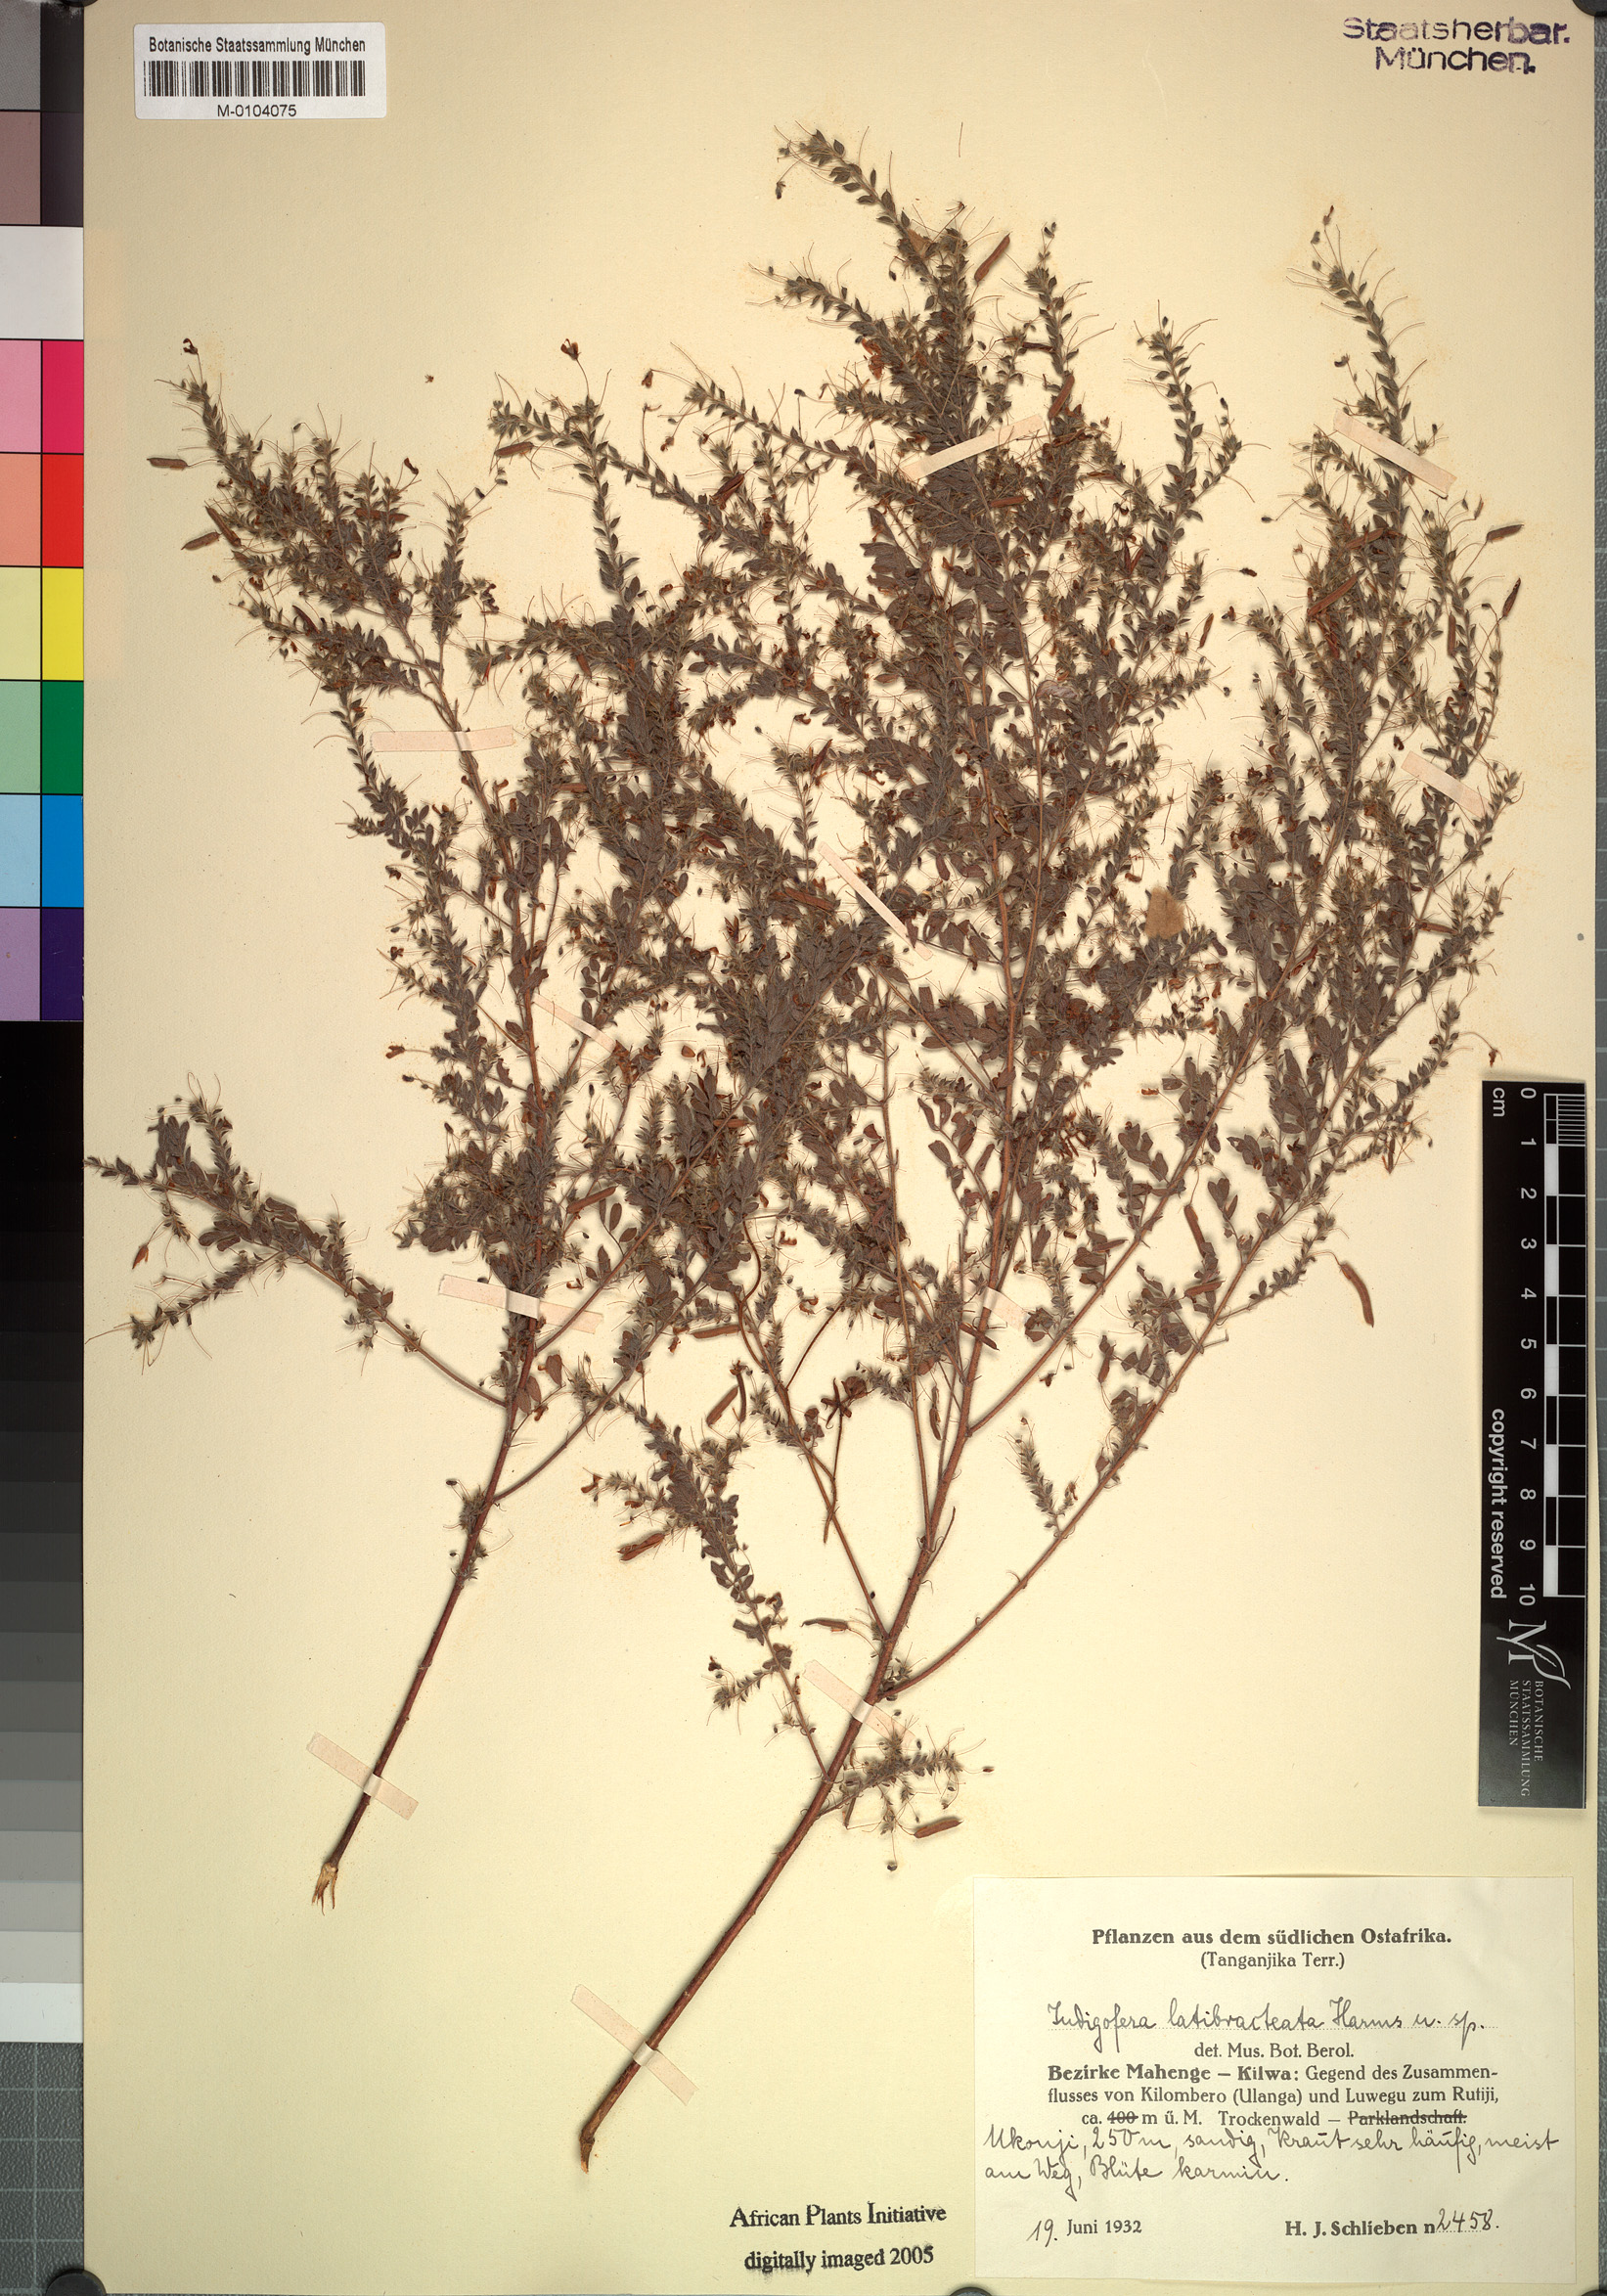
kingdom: Plantae
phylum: Tracheophyta
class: Magnoliopsida
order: Fabales
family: Fabaceae
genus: Indigofera
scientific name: Indigofera cuneata
